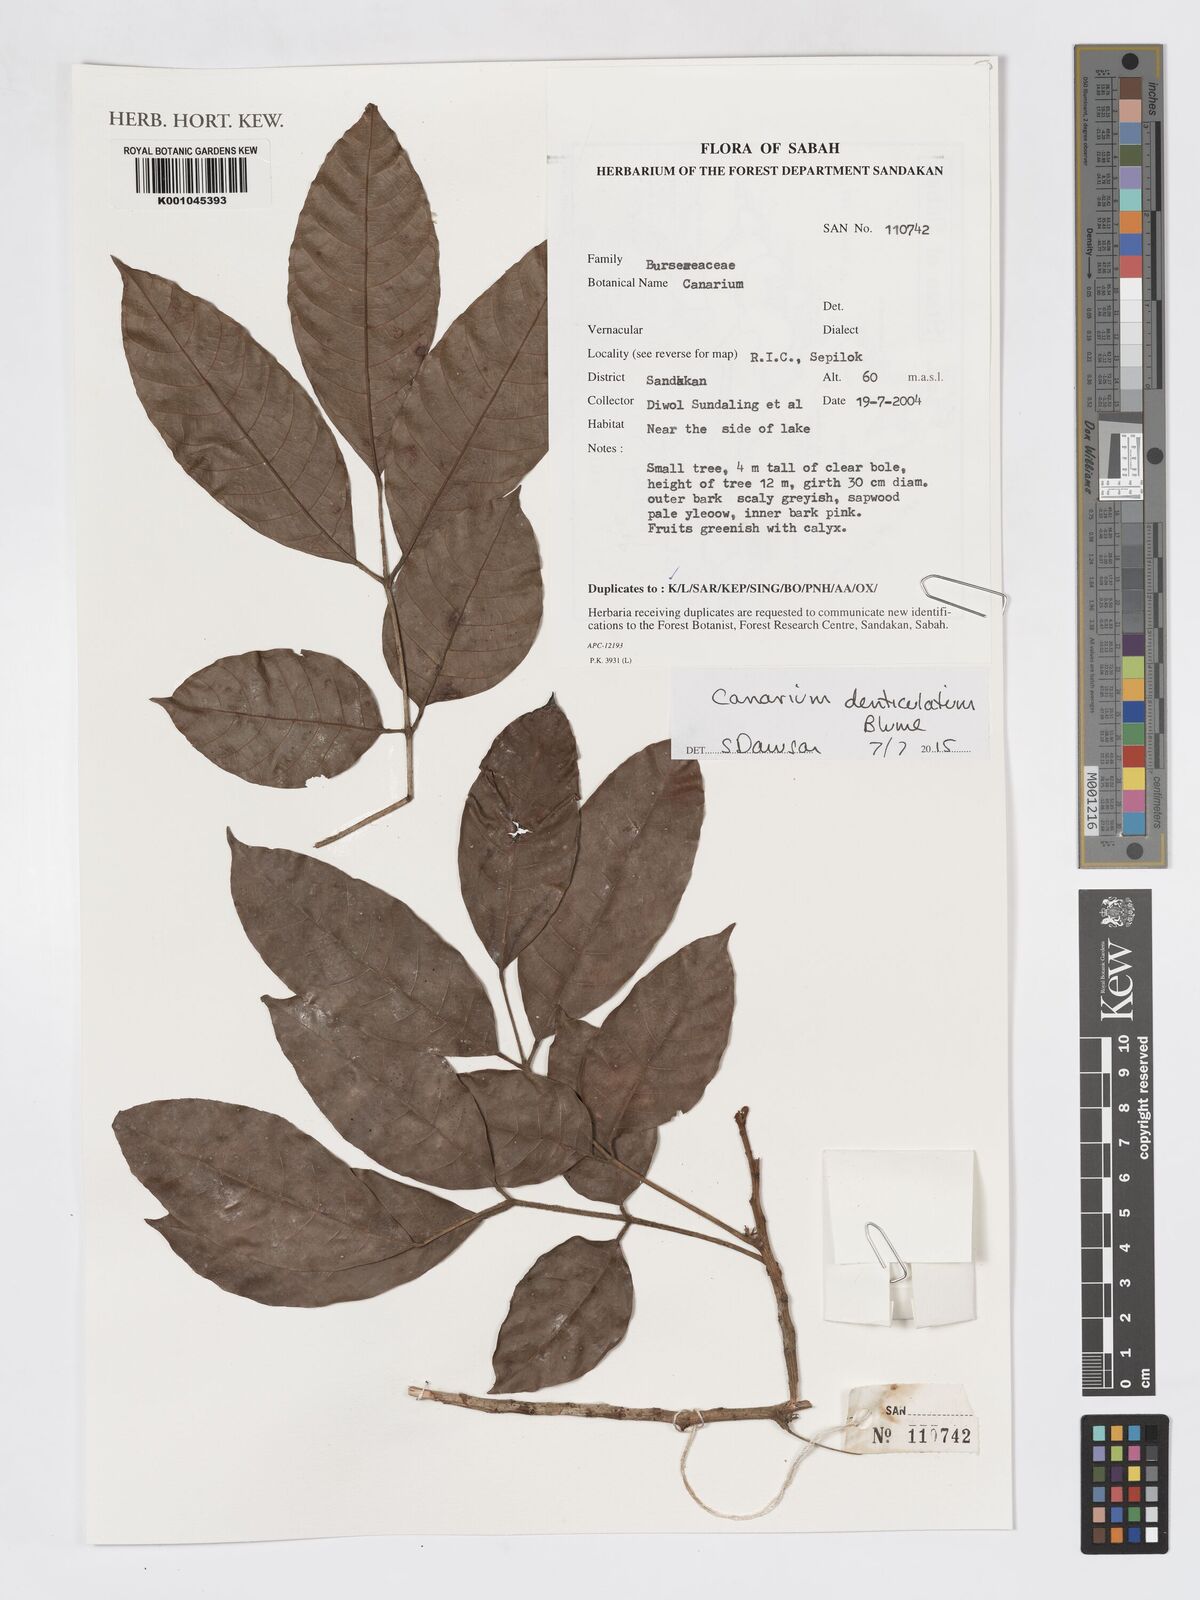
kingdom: Plantae
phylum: Tracheophyta
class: Magnoliopsida
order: Sapindales
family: Burseraceae
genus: Canarium
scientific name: Canarium denticulatum
